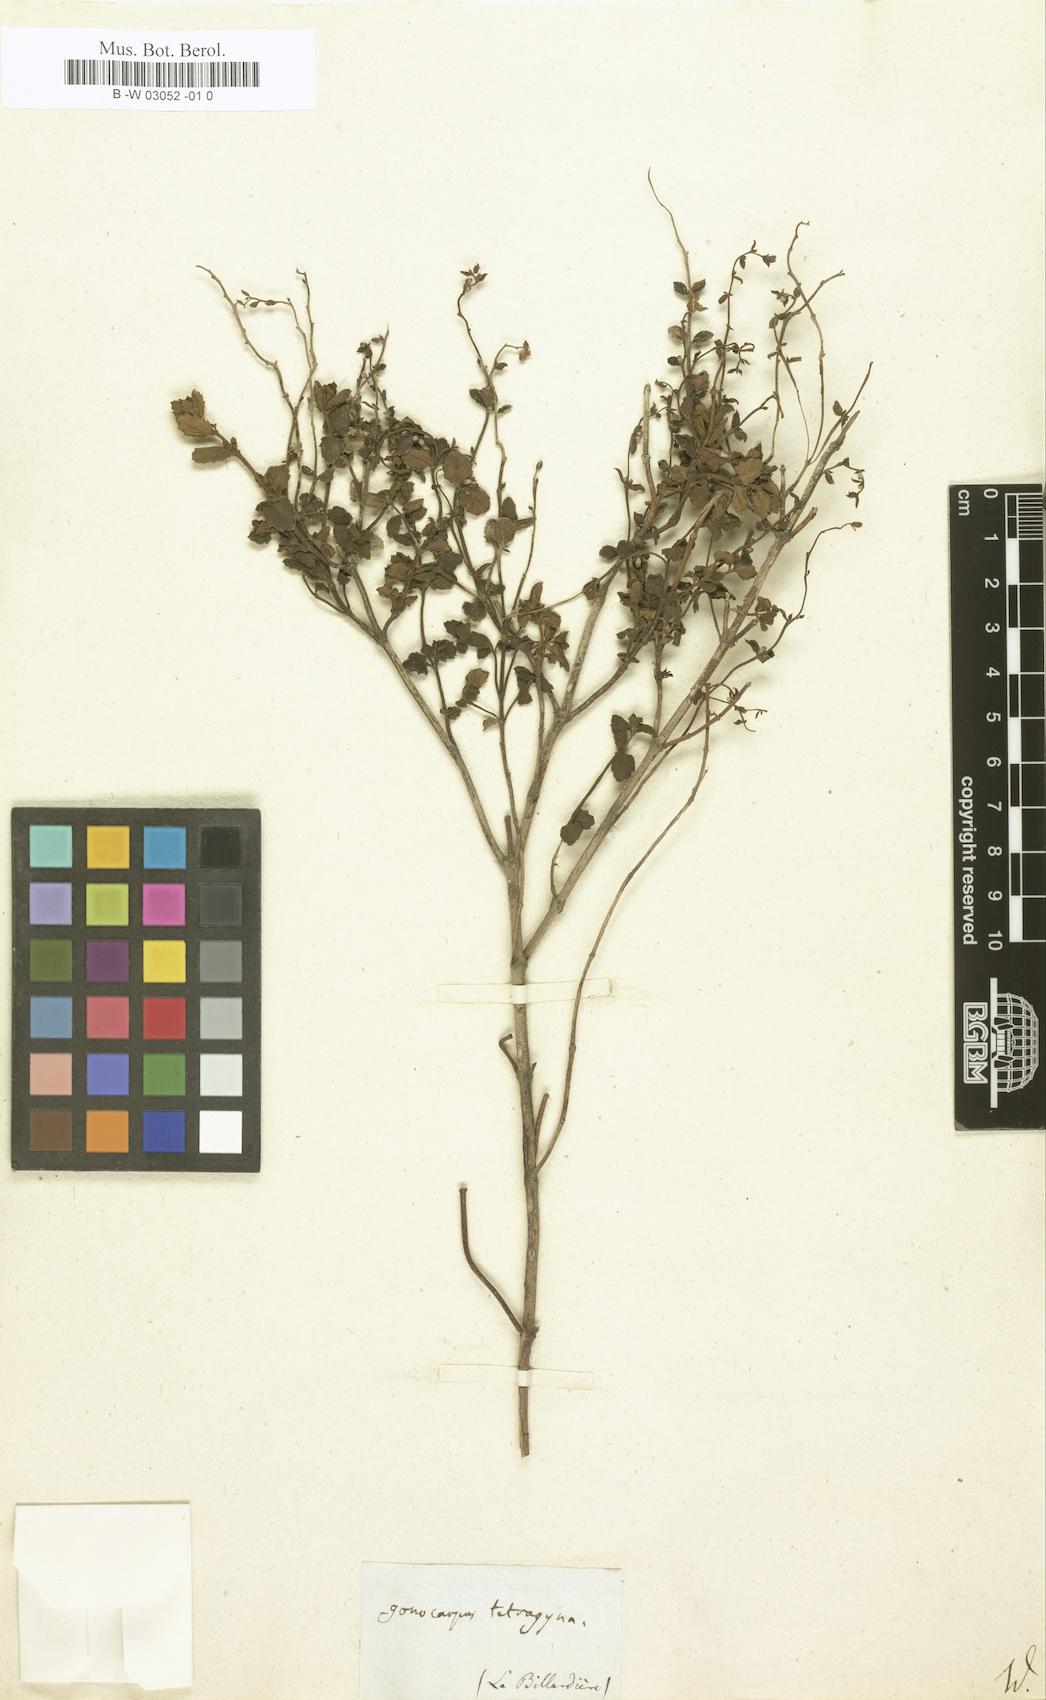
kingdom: Plantae
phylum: Tracheophyta
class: Magnoliopsida
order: Saxifragales
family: Haloragaceae
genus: Gonocarpus
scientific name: Gonocarpus tetragynus
